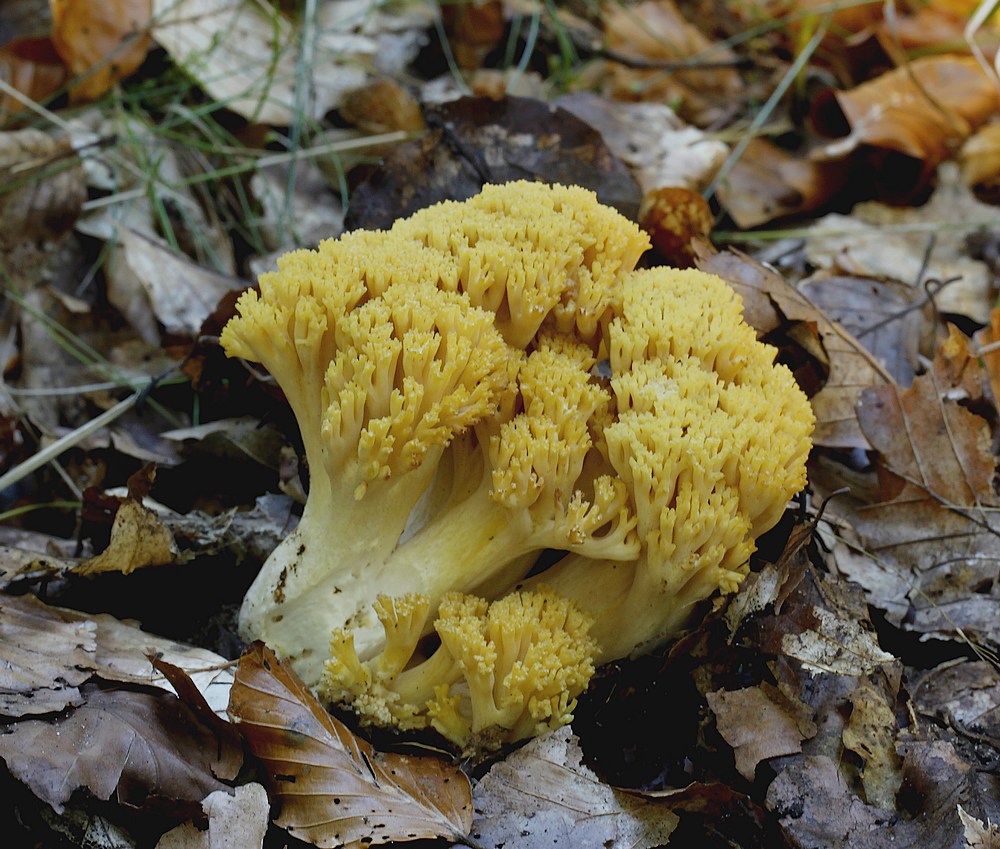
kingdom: Fungi
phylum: Basidiomycota
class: Agaricomycetes
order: Gomphales
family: Gomphaceae
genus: Ramaria
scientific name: Ramaria krieglsteineri
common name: smalsporet koralsvamp
